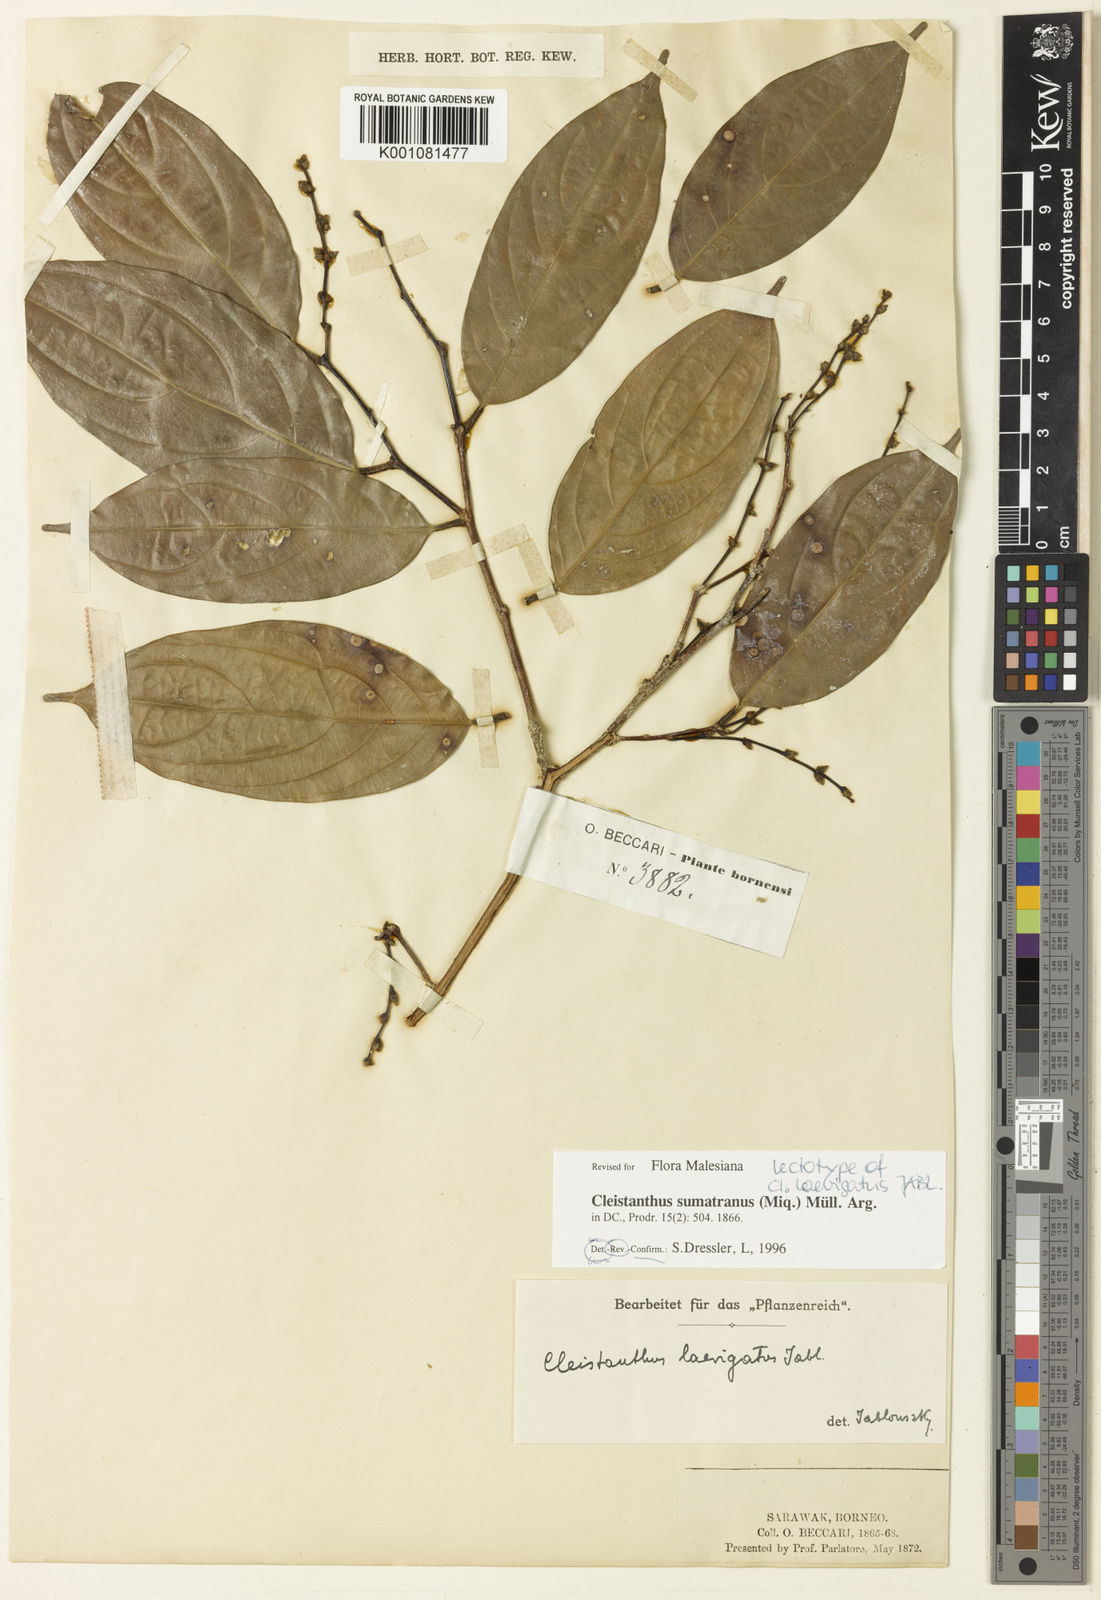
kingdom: Plantae
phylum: Tracheophyta
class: Magnoliopsida
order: Malpighiales
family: Phyllanthaceae
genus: Cleistanthus
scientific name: Cleistanthus
